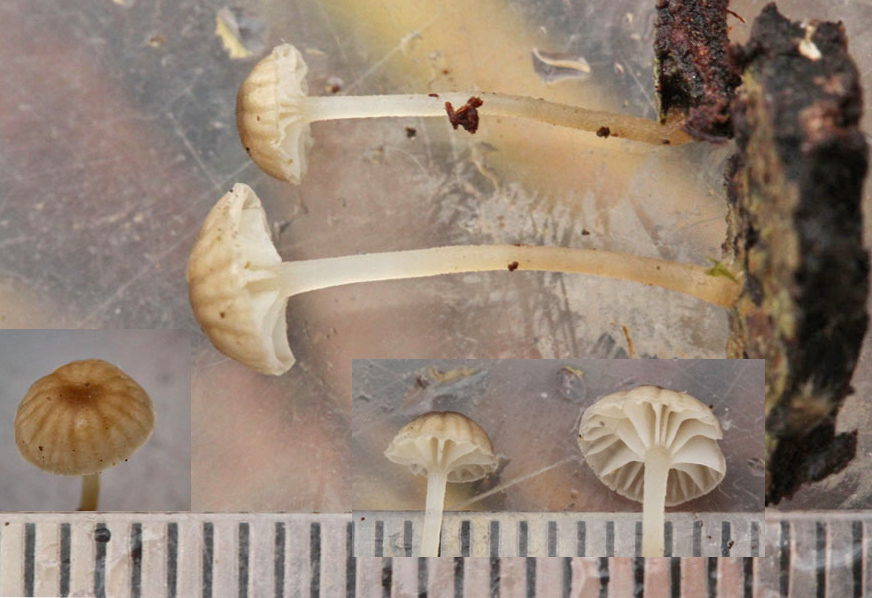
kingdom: Fungi
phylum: Basidiomycota
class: Agaricomycetes
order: Agaricales
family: Porotheleaceae
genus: Phloeomana
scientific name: Phloeomana speirea
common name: kvist-huesvamp
